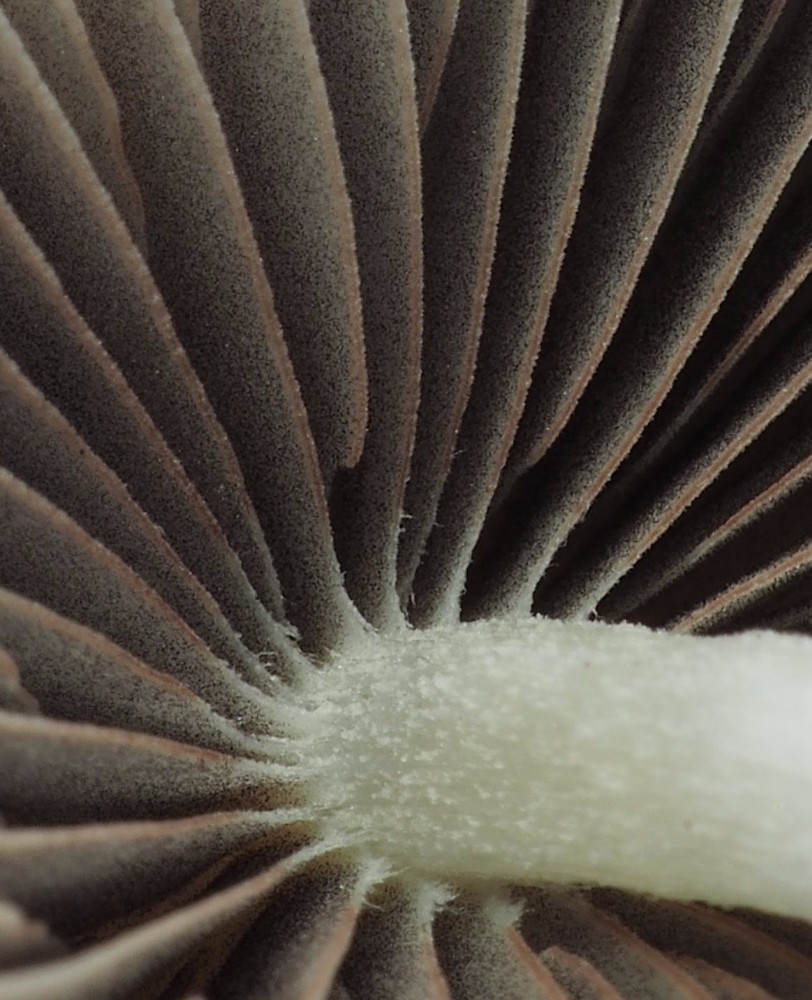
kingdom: Fungi
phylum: Basidiomycota
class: Agaricomycetes
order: Agaricales
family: Psathyrellaceae
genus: Psathyrella
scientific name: Psathyrella corrugis
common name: rødægget mørkhat
